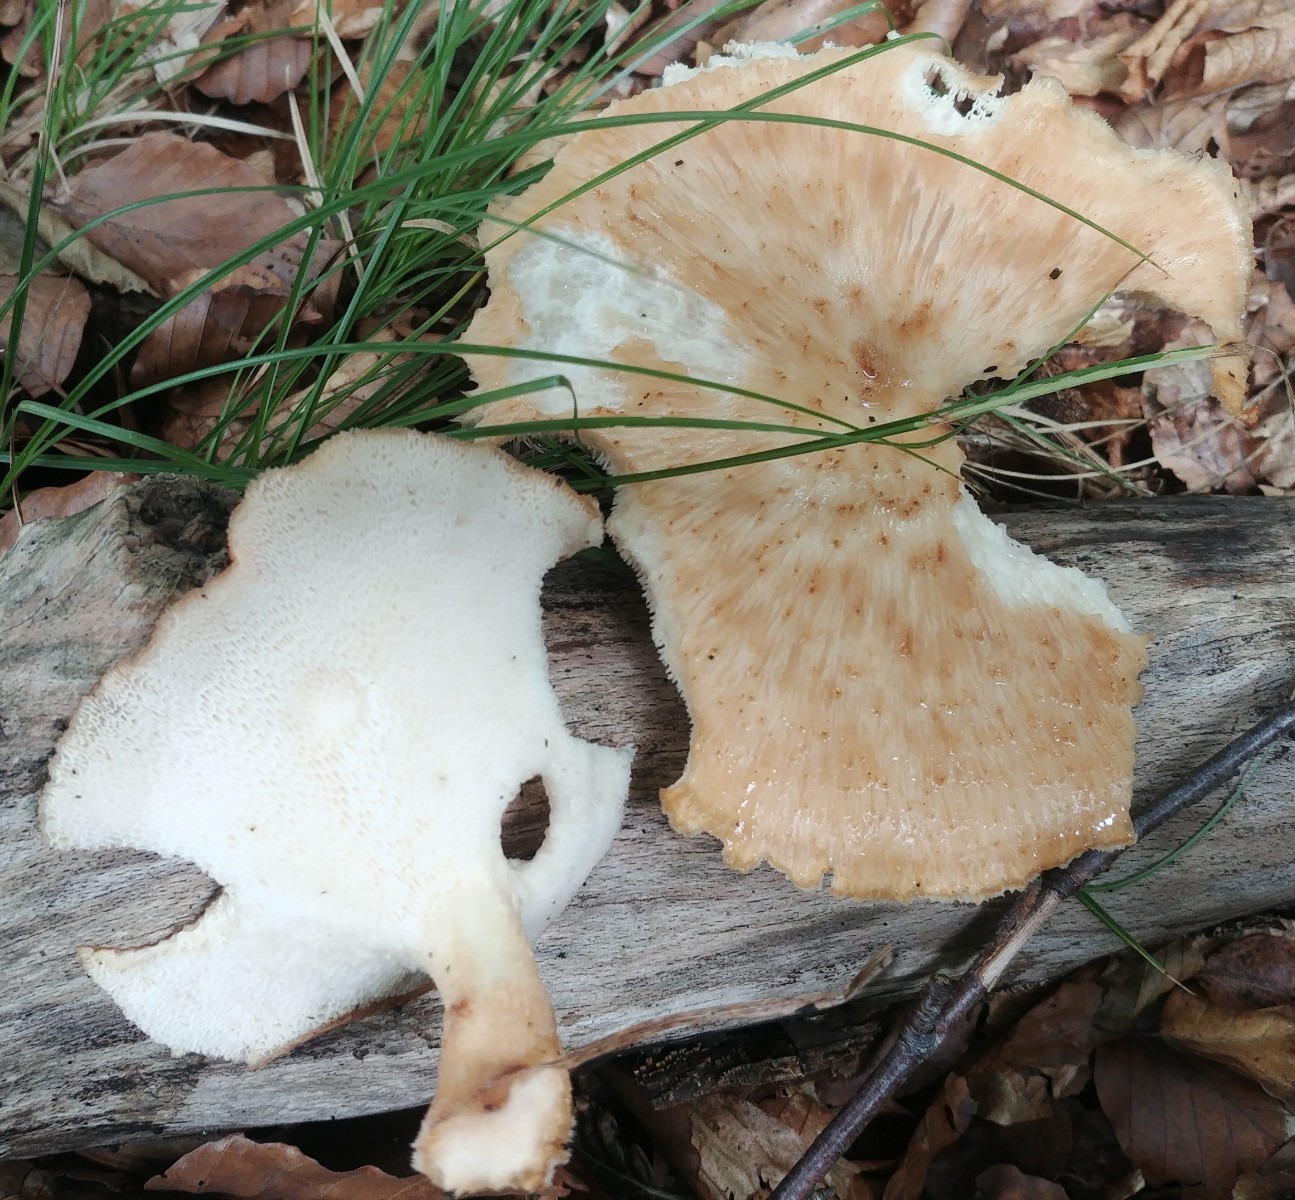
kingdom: Fungi
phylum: Basidiomycota
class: Agaricomycetes
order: Polyporales
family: Polyporaceae
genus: Polyporus
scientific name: Polyporus tuberaster
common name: knoldet stilkporesvamp
